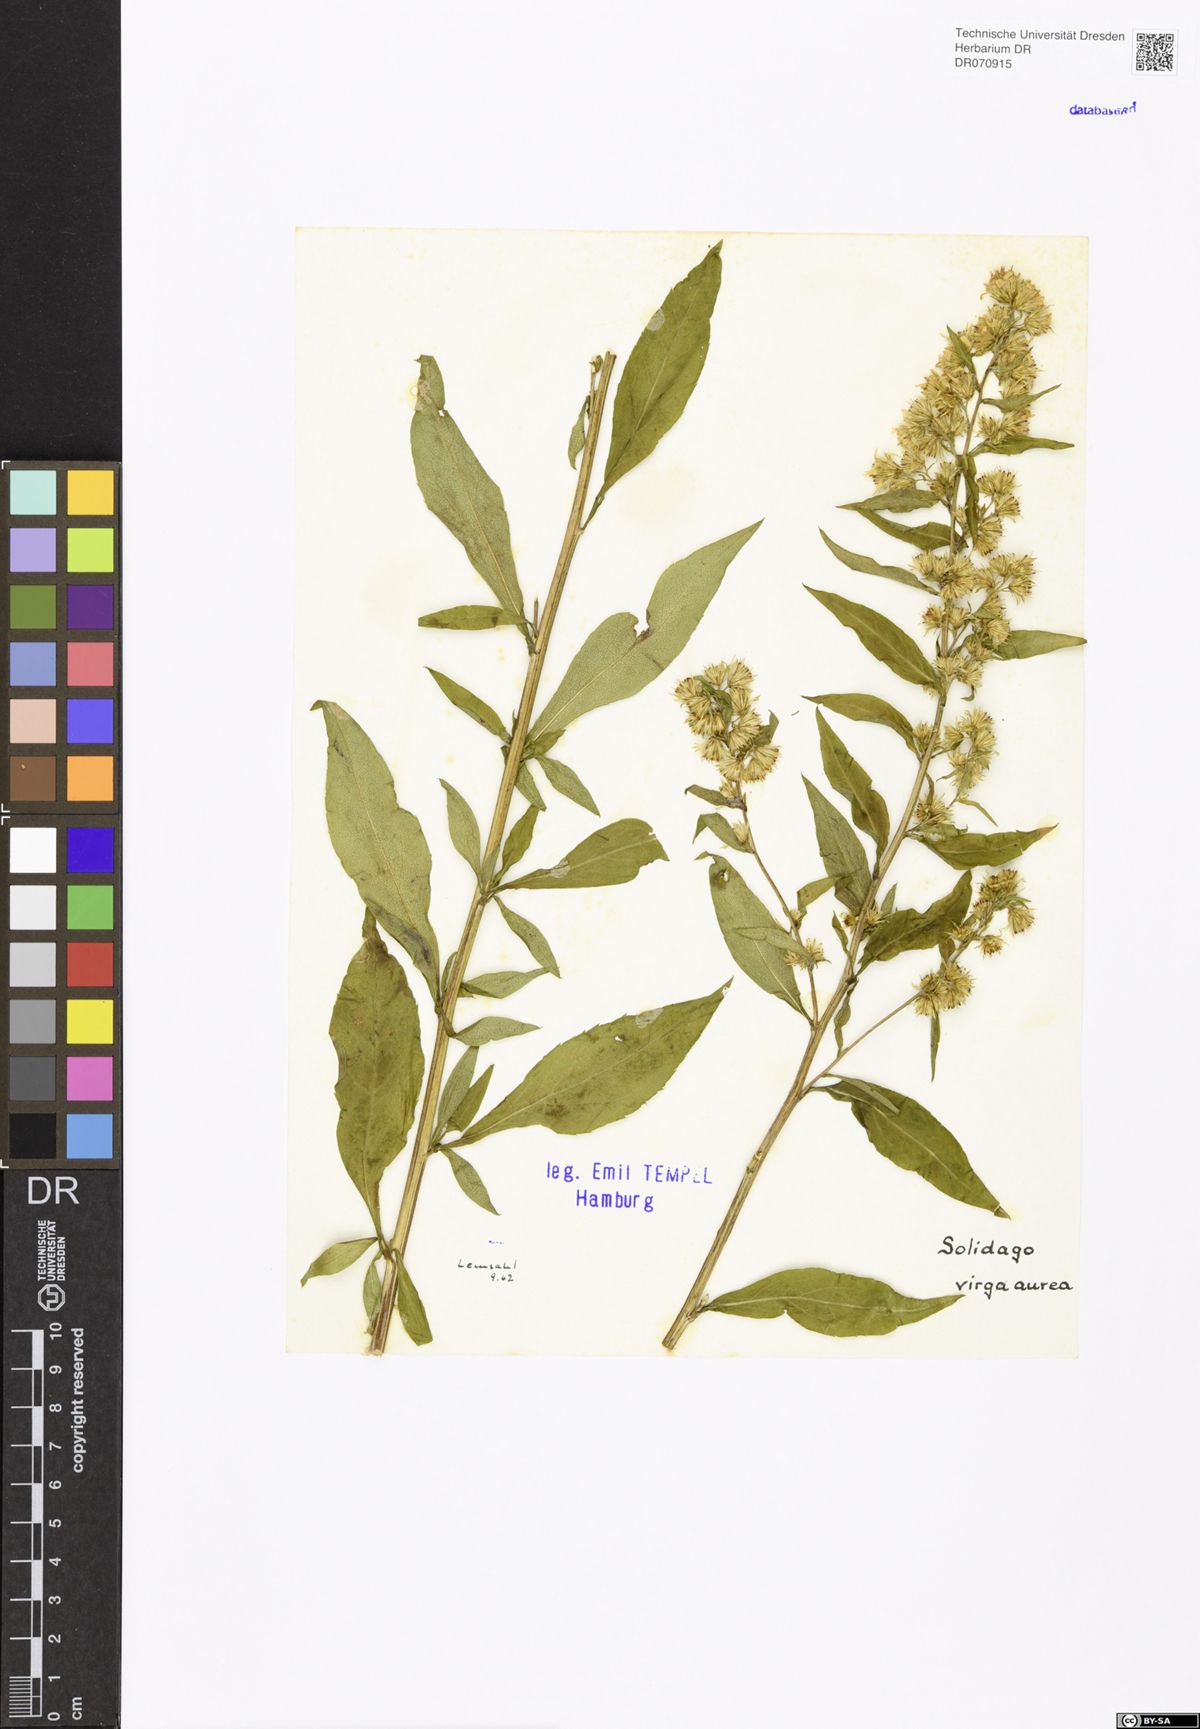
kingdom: Plantae
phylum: Tracheophyta
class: Magnoliopsida
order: Asterales
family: Asteraceae
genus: Solidago
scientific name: Solidago virgaurea
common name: Goldenrod
